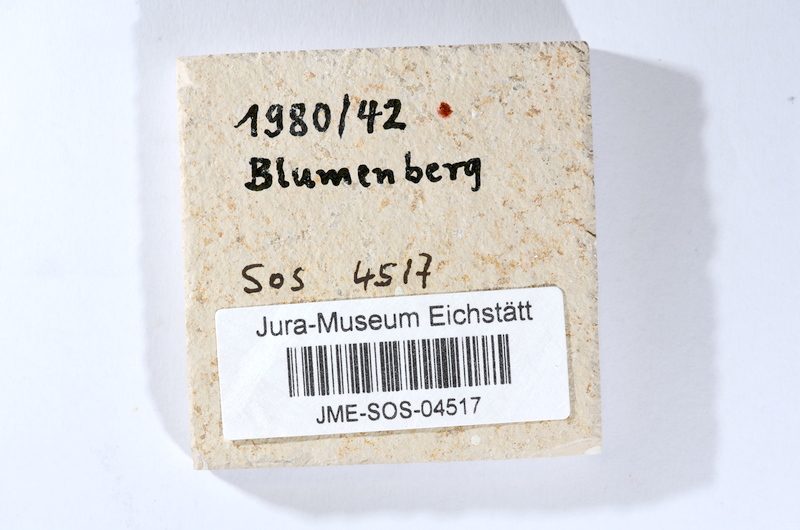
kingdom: Animalia
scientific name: Animalia
